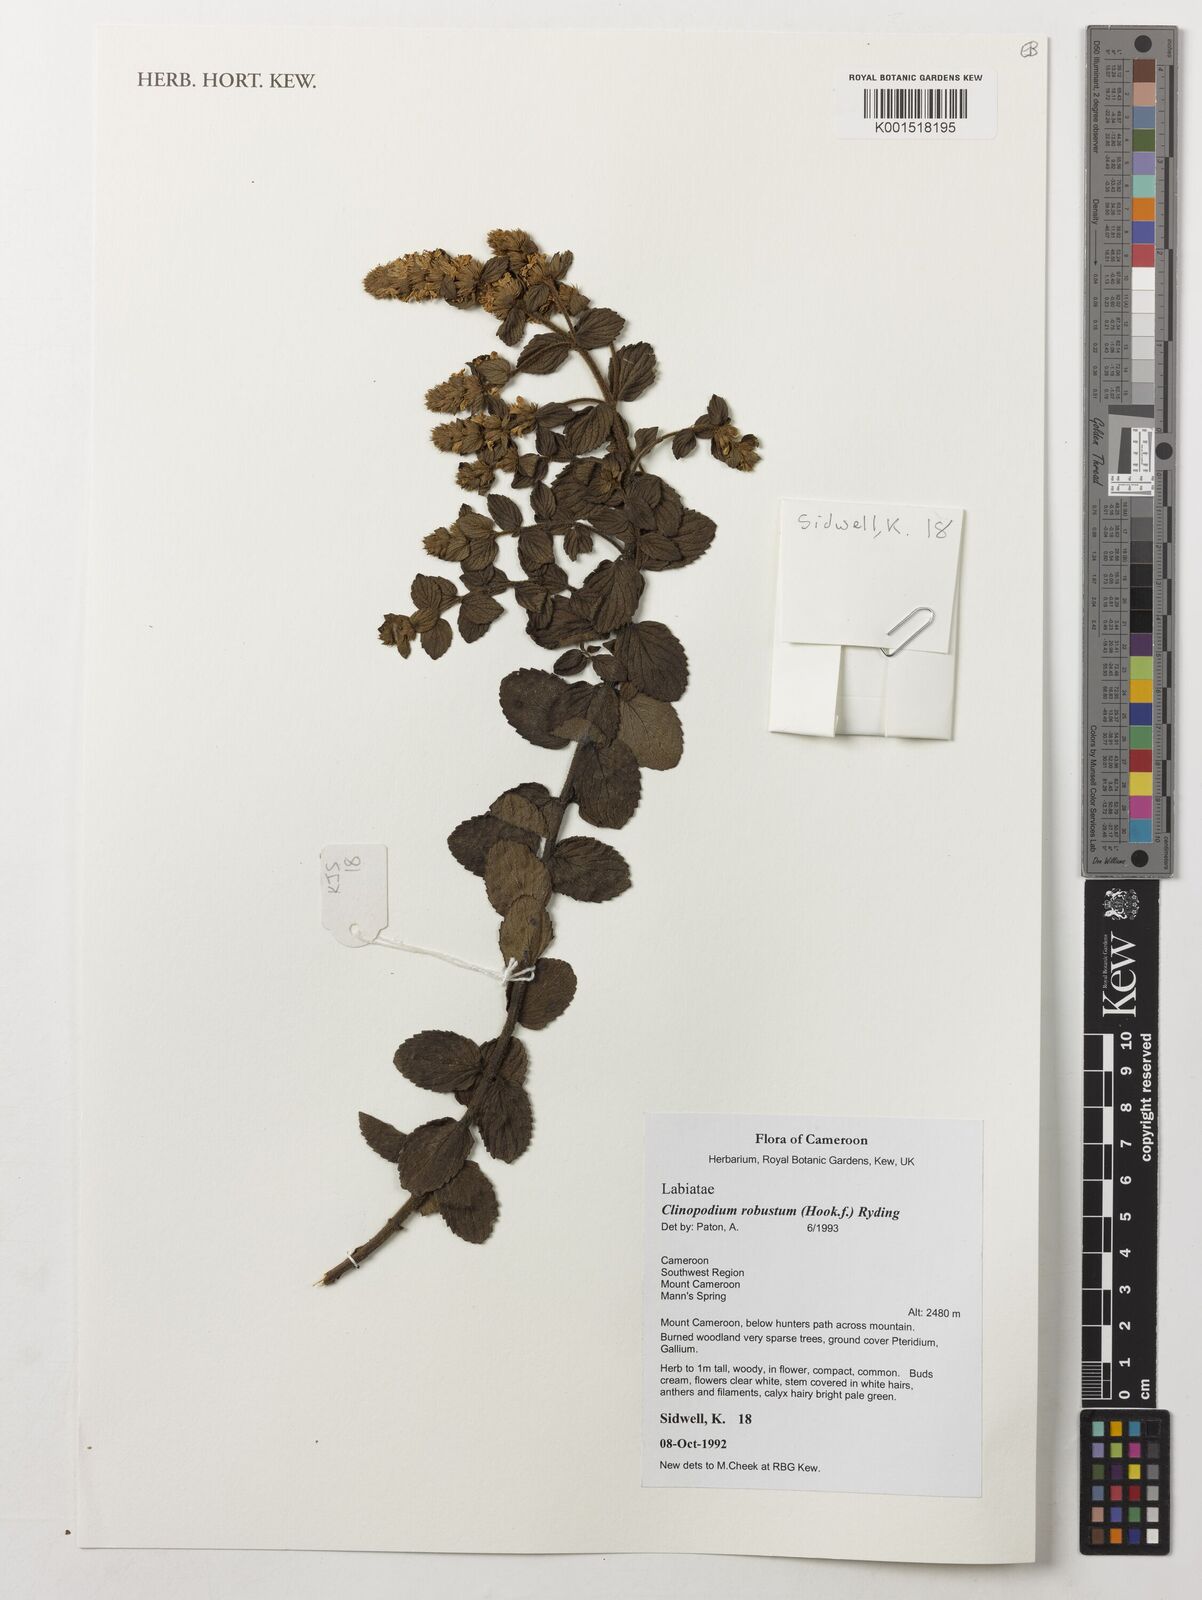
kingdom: Plantae
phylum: Tracheophyta
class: Magnoliopsida
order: Lamiales
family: Lamiaceae
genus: Clinopodium
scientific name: Clinopodium robustum
